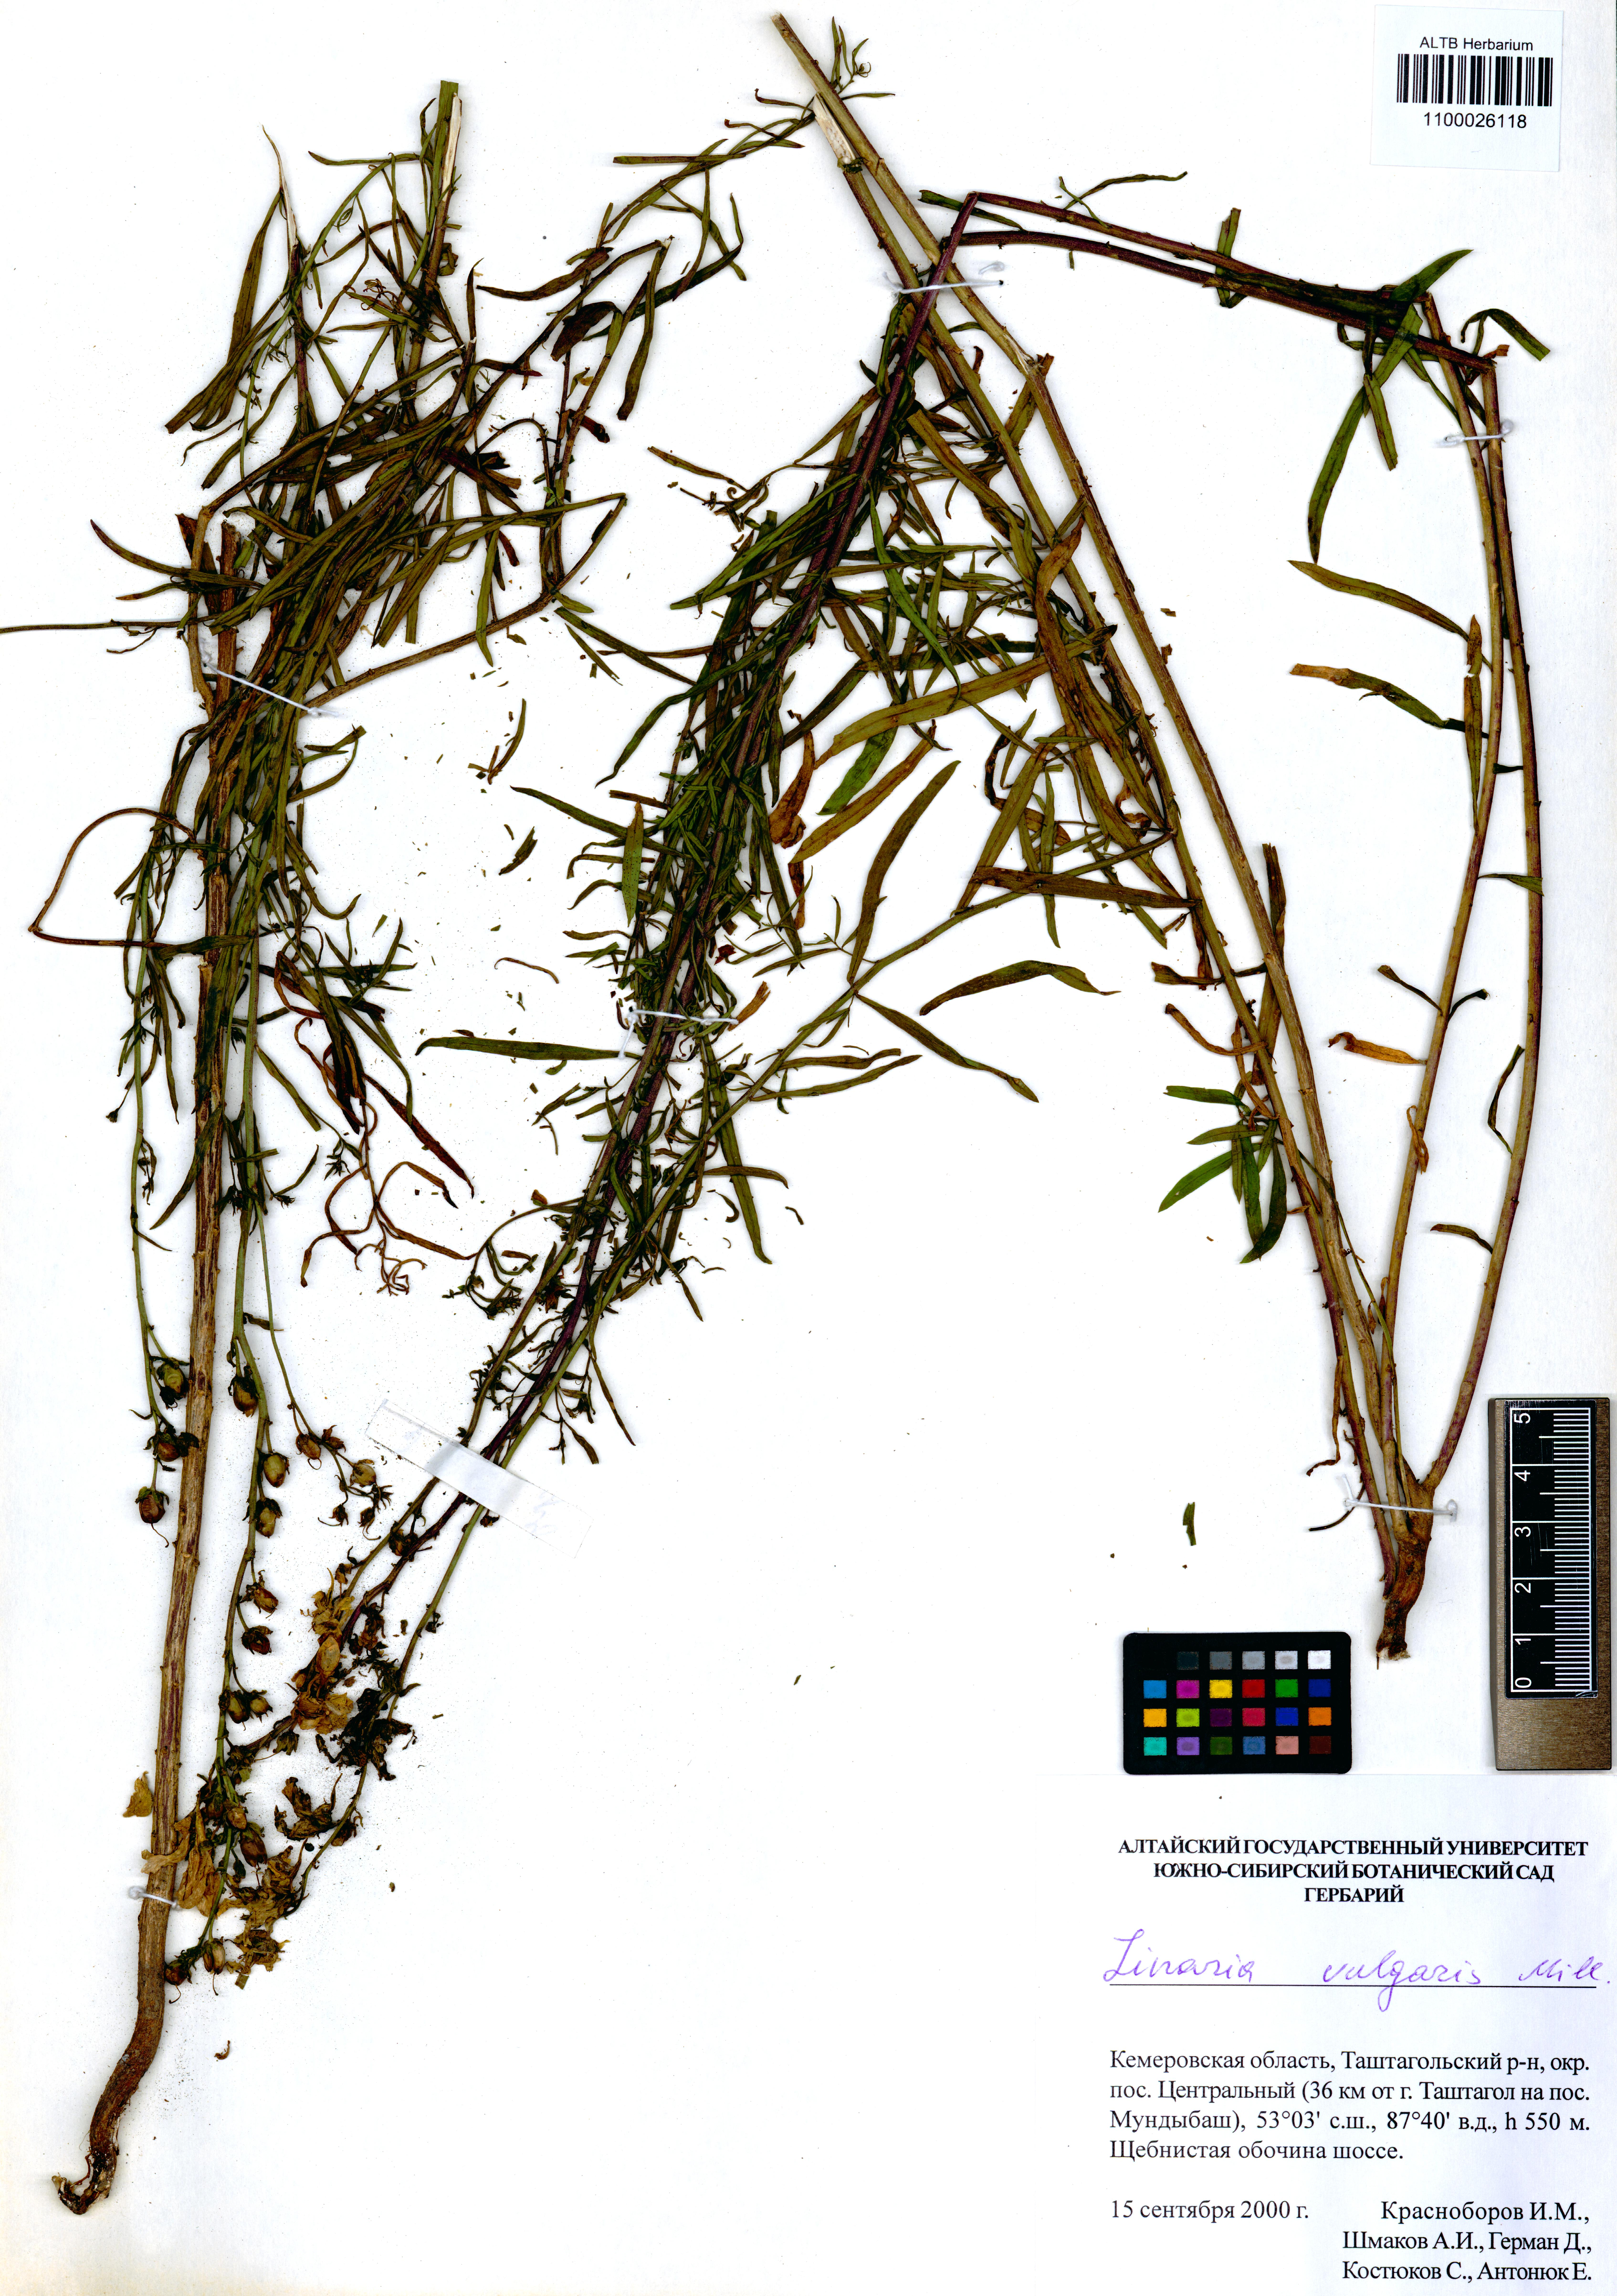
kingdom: Plantae
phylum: Tracheophyta
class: Magnoliopsida
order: Lamiales
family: Plantaginaceae
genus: Linaria
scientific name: Linaria vulgaris
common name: Butter and eggs
